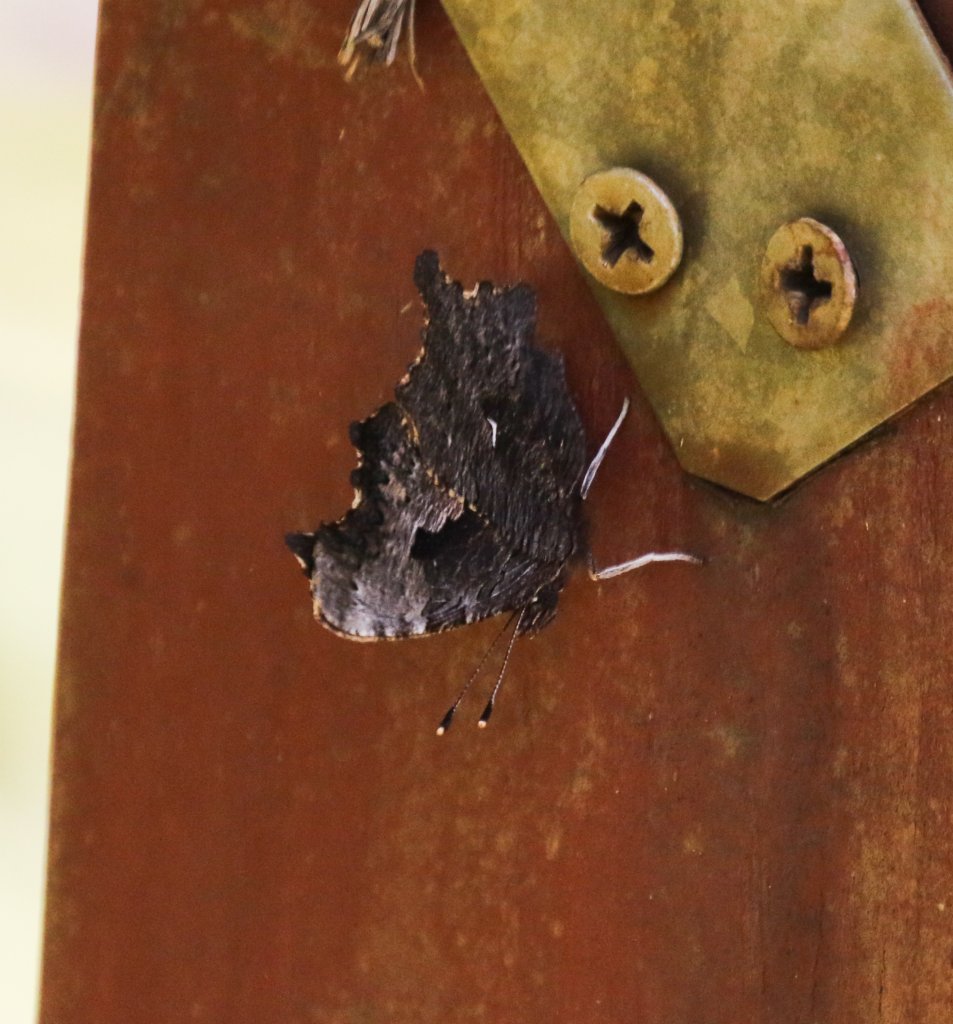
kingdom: Animalia
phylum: Arthropoda
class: Insecta
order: Lepidoptera
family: Nymphalidae
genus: Polygonia
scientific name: Polygonia progne
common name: Gray Comma
